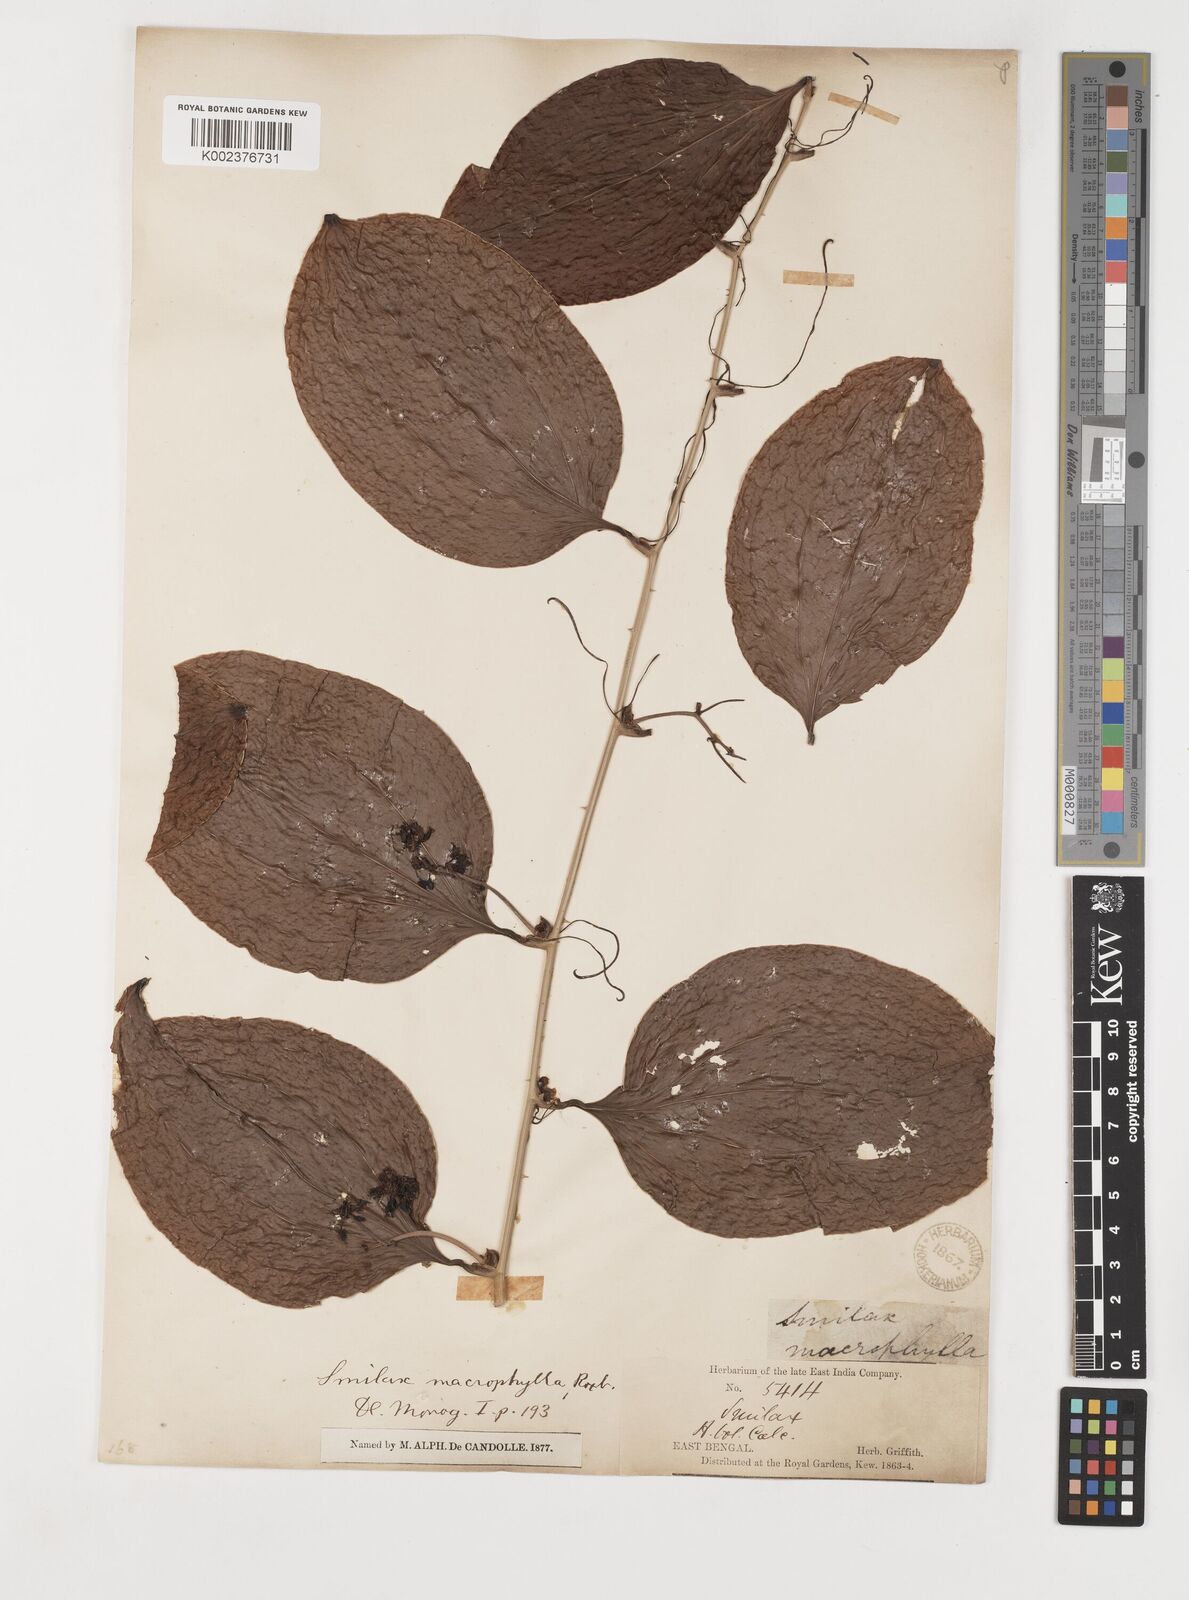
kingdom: Plantae
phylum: Tracheophyta
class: Liliopsida
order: Liliales
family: Smilacaceae
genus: Smilax
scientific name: Smilax ovalifolia
